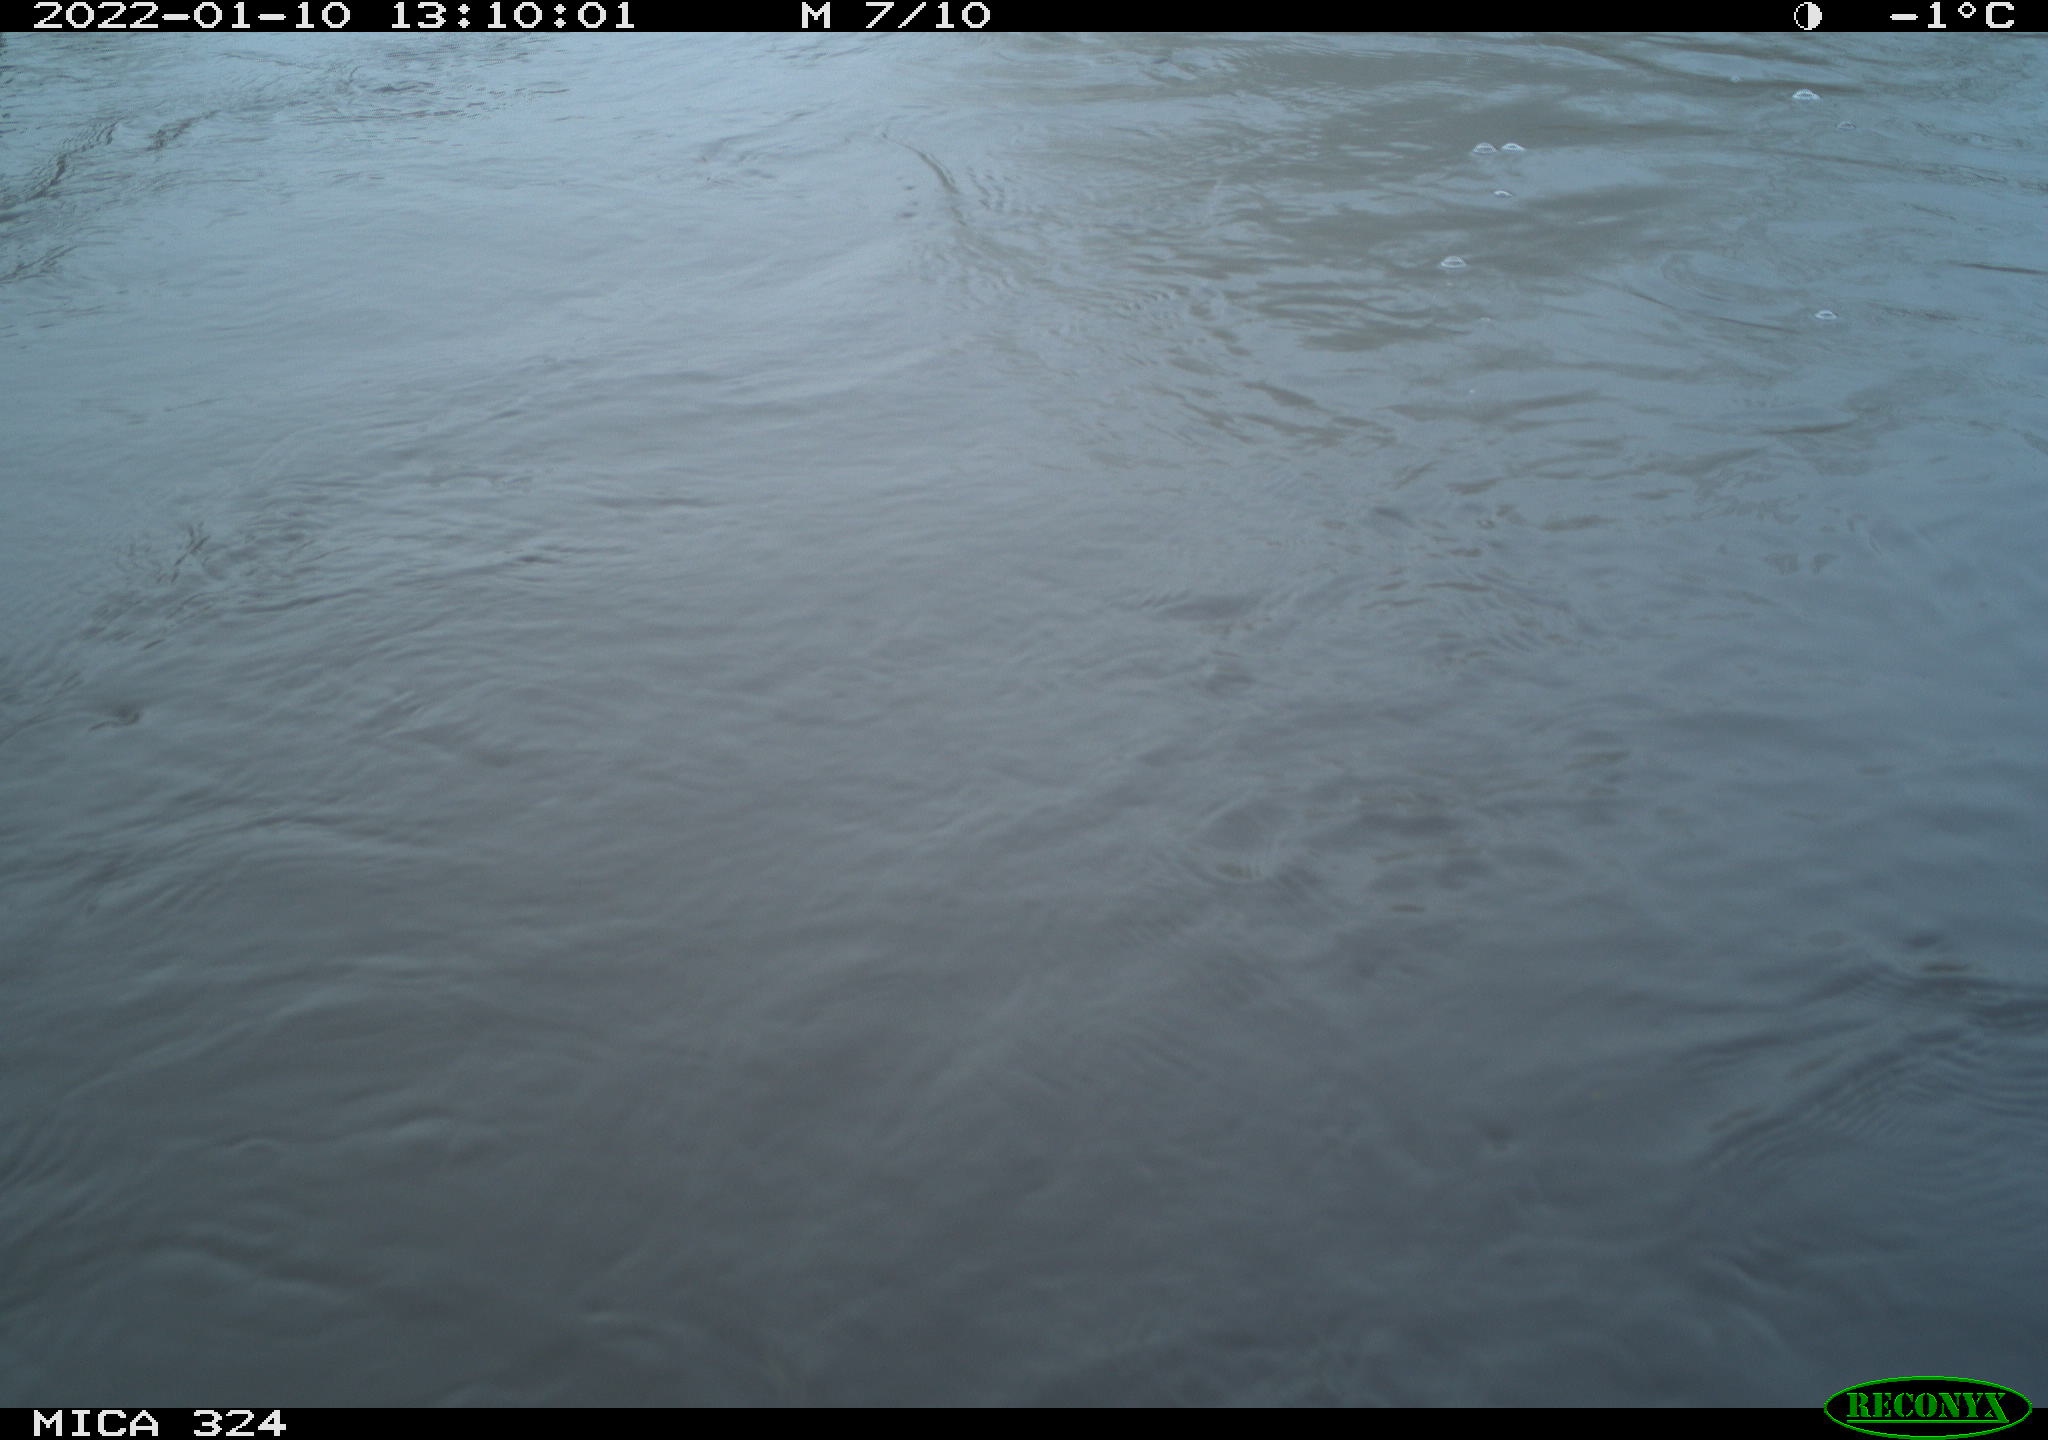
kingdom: Animalia
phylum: Chordata
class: Mammalia
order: Rodentia
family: Cricetidae
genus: Ondatra
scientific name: Ondatra zibethicus
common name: Muskrat
